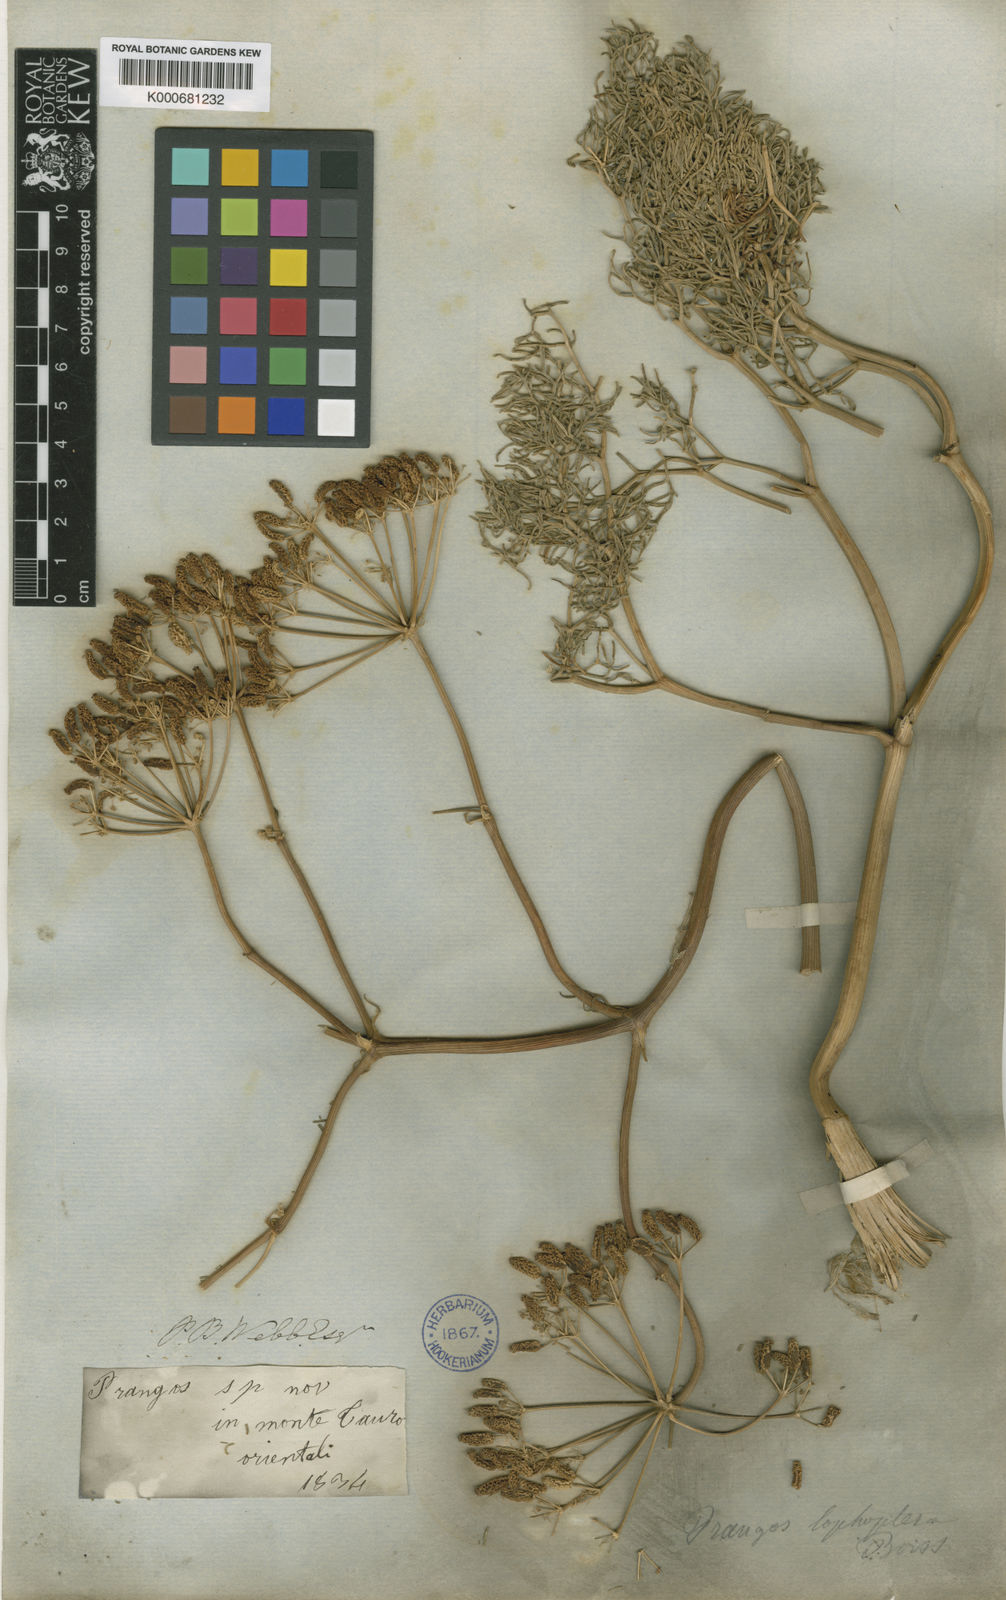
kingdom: Plantae
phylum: Tracheophyta
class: Magnoliopsida
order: Apiales
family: Apiaceae
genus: Prangos
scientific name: Prangos pabularia
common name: Yugan
